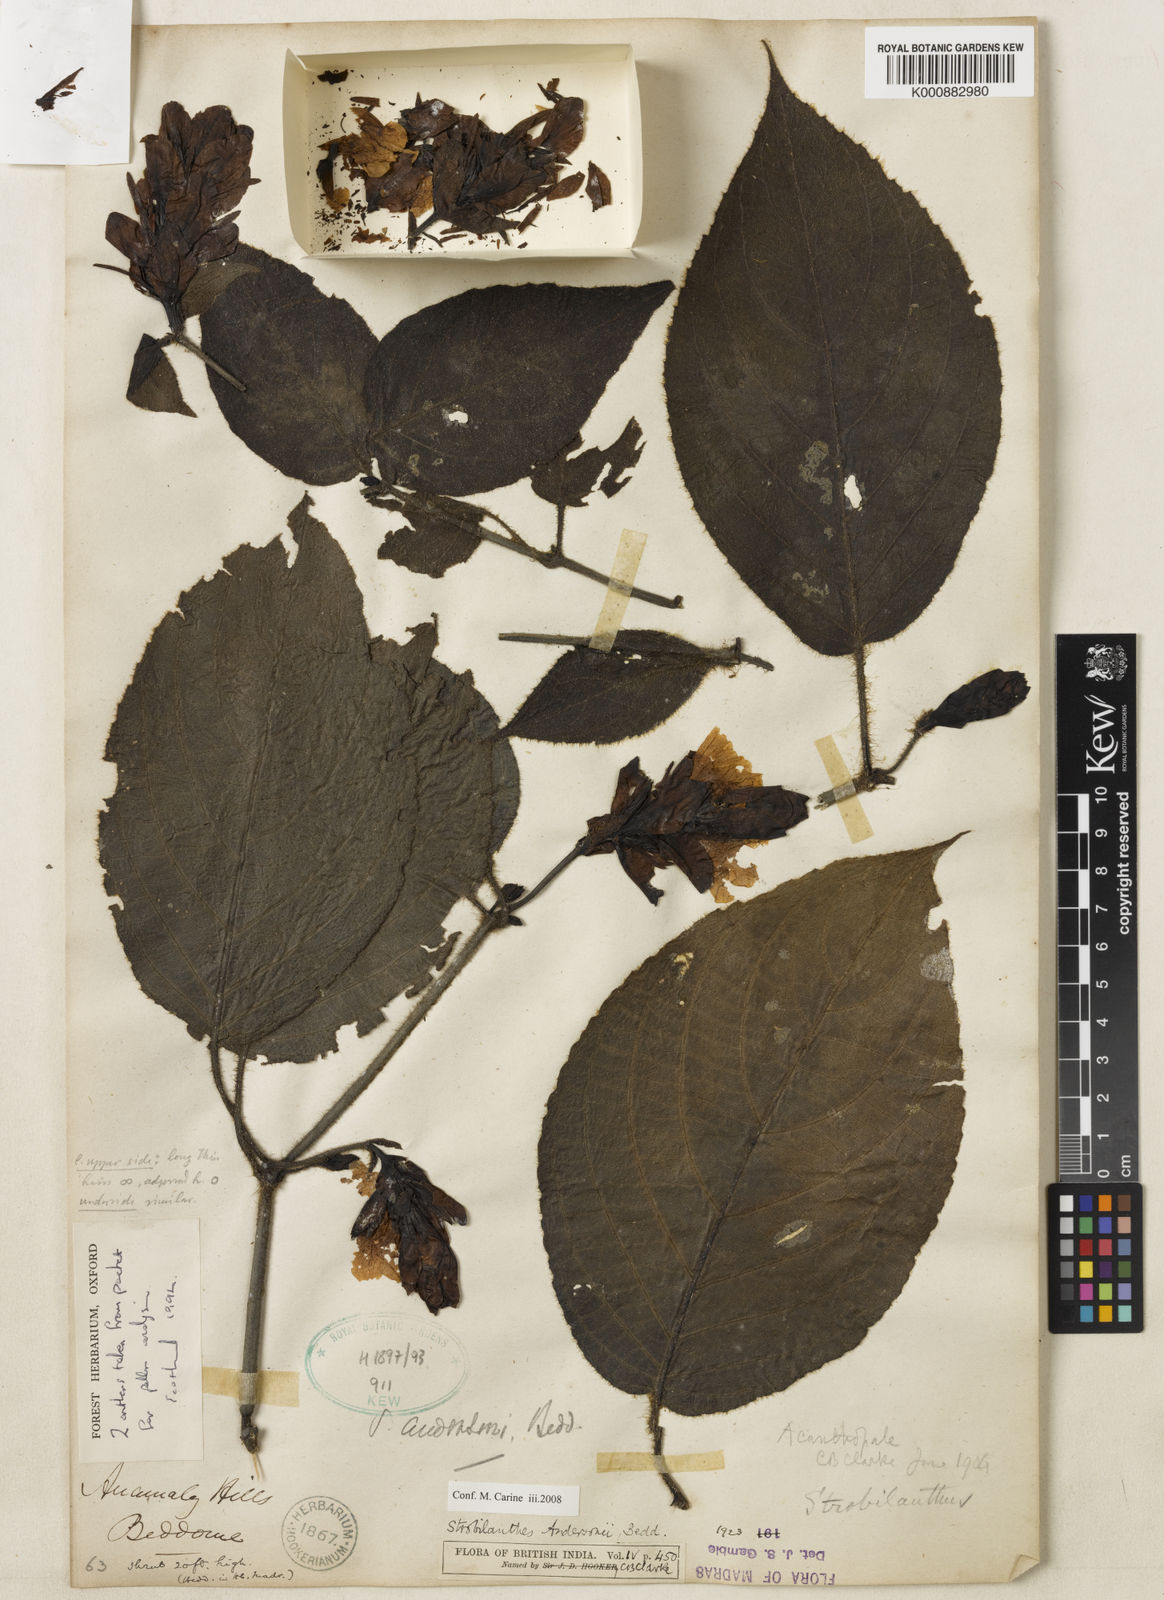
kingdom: Plantae
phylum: Tracheophyta
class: Magnoliopsida
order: Lamiales
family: Acanthaceae
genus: Strobilanthes
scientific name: Strobilanthes andersonii
